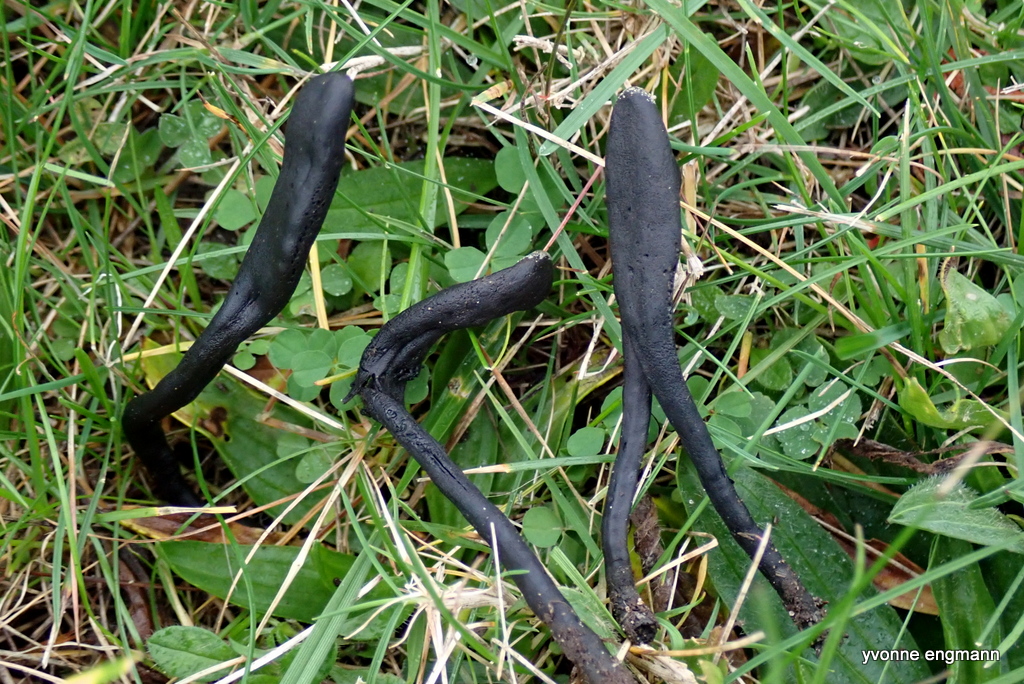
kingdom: Fungi
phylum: Ascomycota
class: Geoglossomycetes
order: Geoglossales
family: Geoglossaceae
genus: Geoglossum
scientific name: Geoglossum
